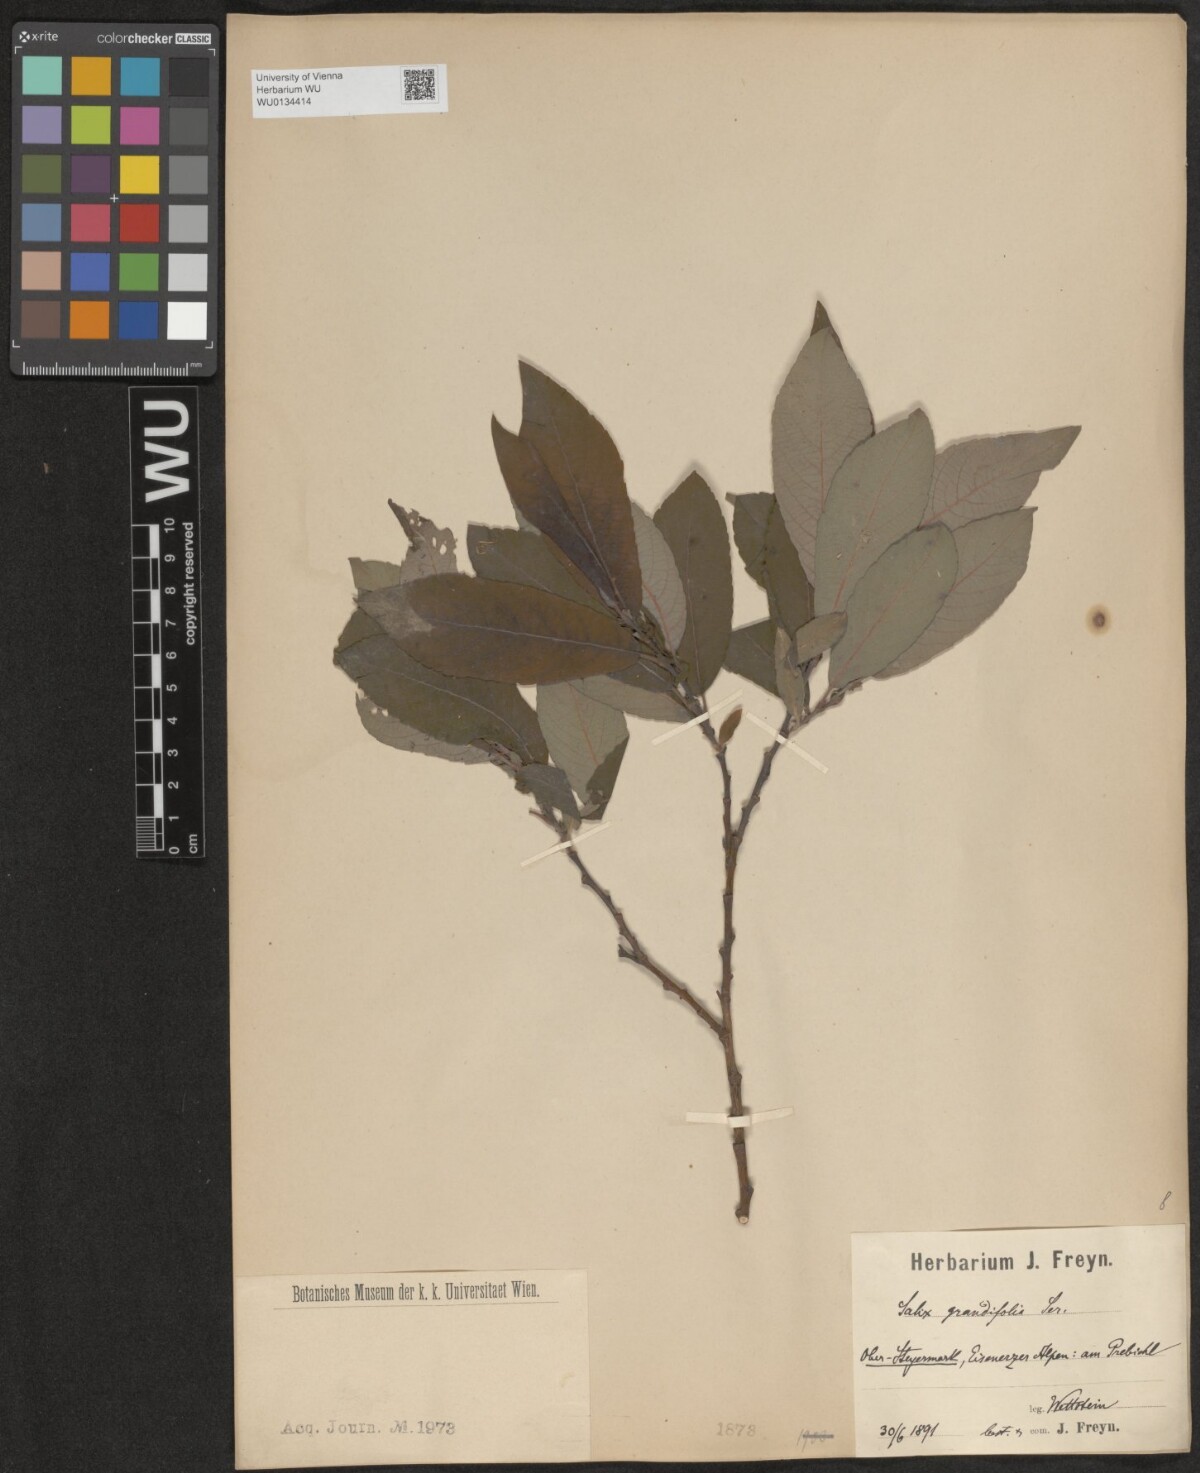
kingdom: Plantae
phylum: Tracheophyta
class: Magnoliopsida
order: Malpighiales
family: Salicaceae
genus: Salix
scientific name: Salix appendiculata
